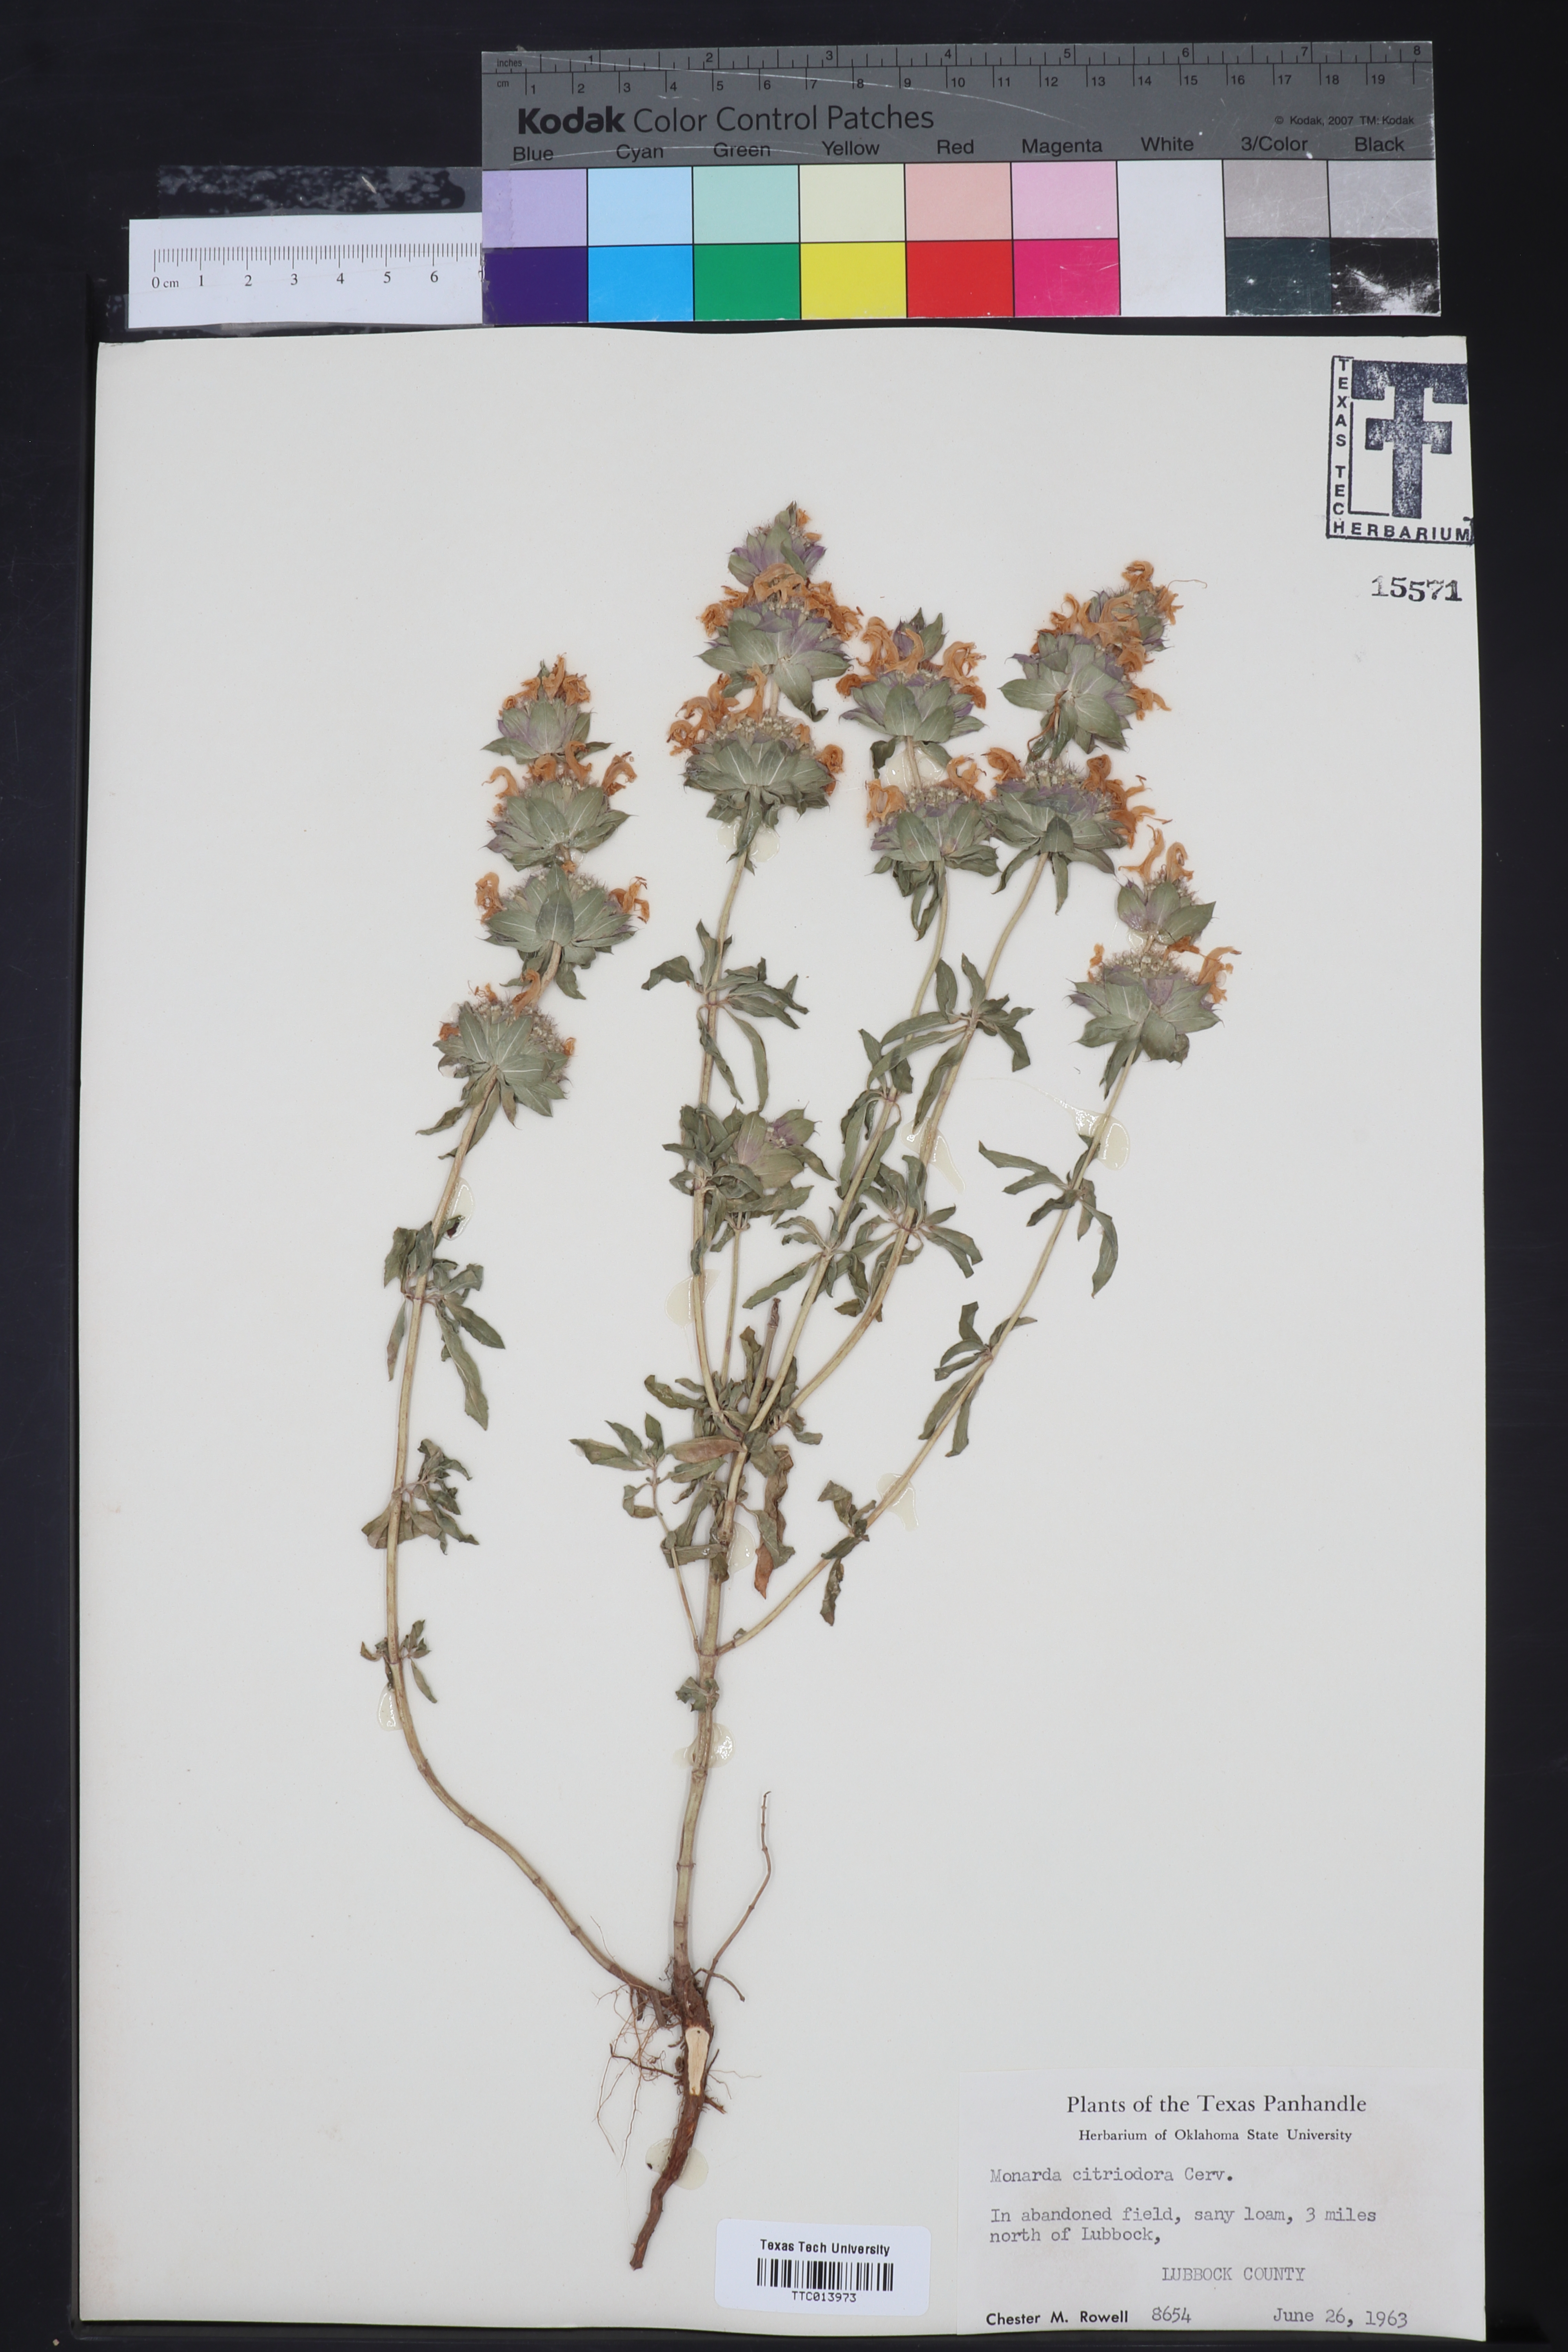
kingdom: Plantae
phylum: Tracheophyta
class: Magnoliopsida
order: Lamiales
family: Lamiaceae
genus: Monarda
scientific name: Monarda citriodora
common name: Lemon beebalm
